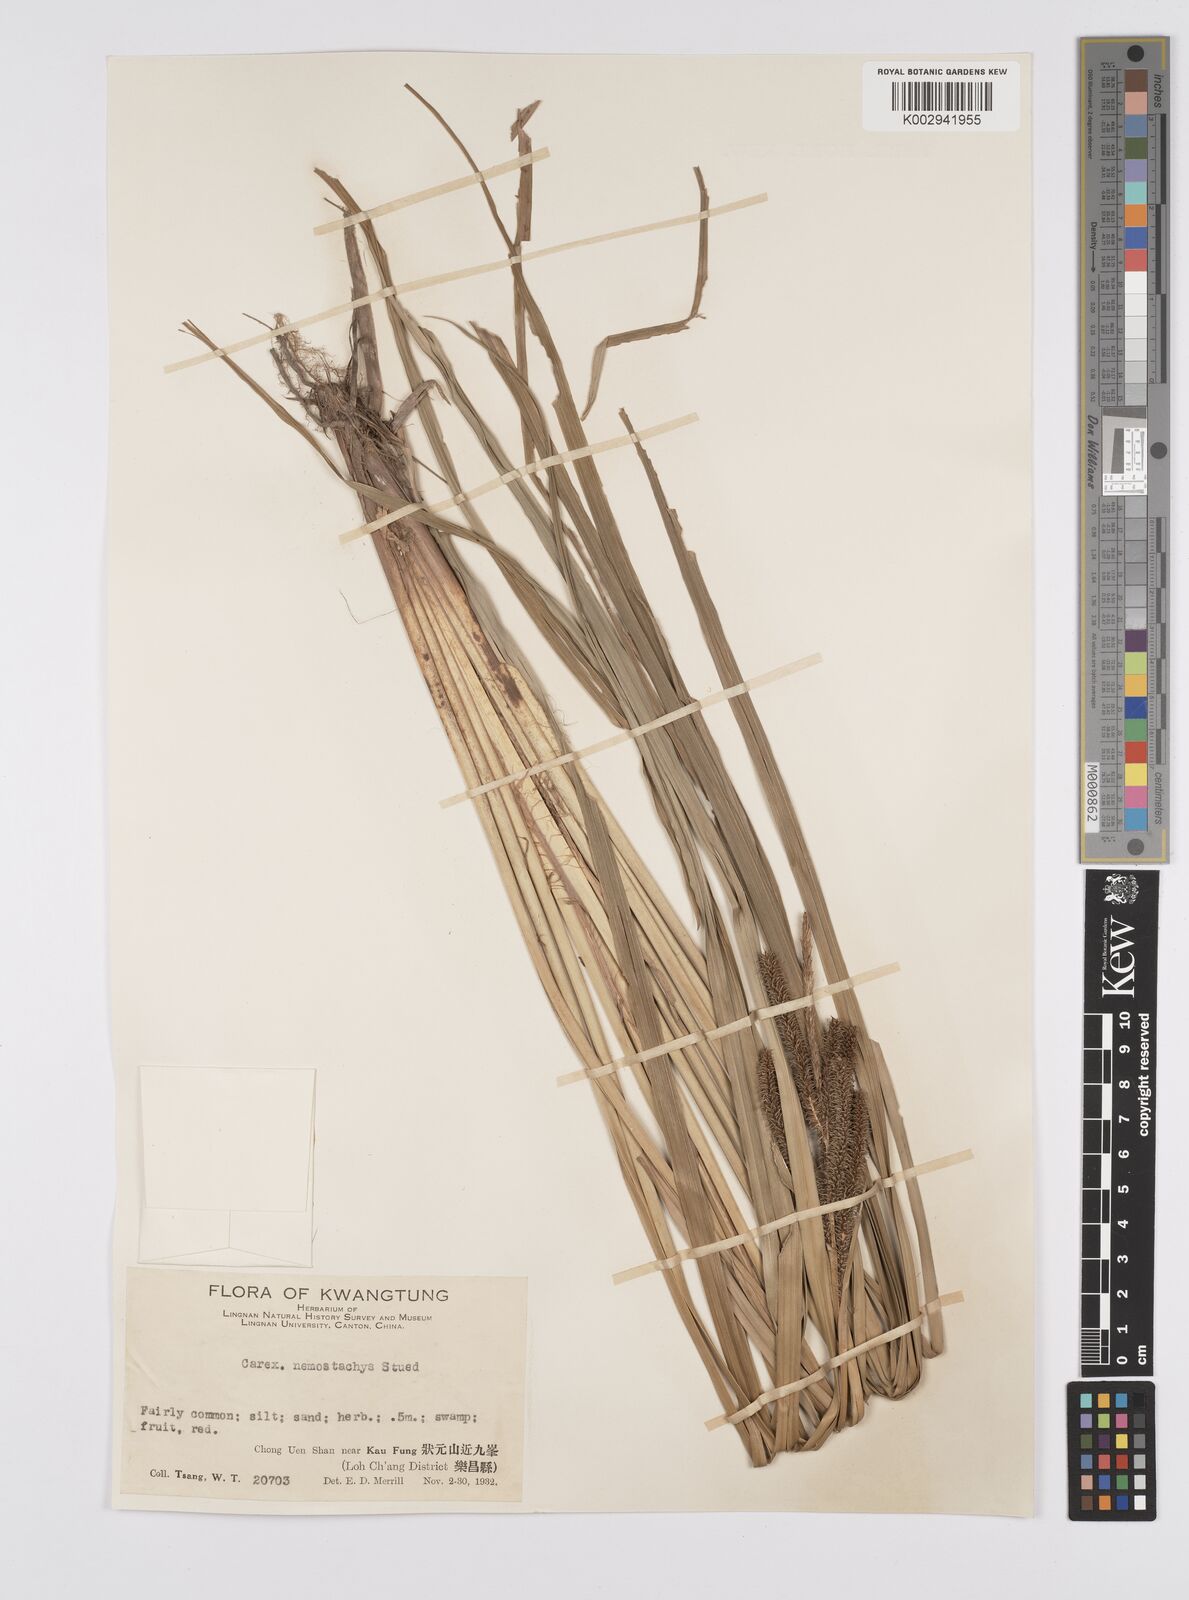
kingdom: Plantae
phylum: Tracheophyta
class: Liliopsida
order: Poales
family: Cyperaceae
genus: Carex
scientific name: Carex nemostachys
